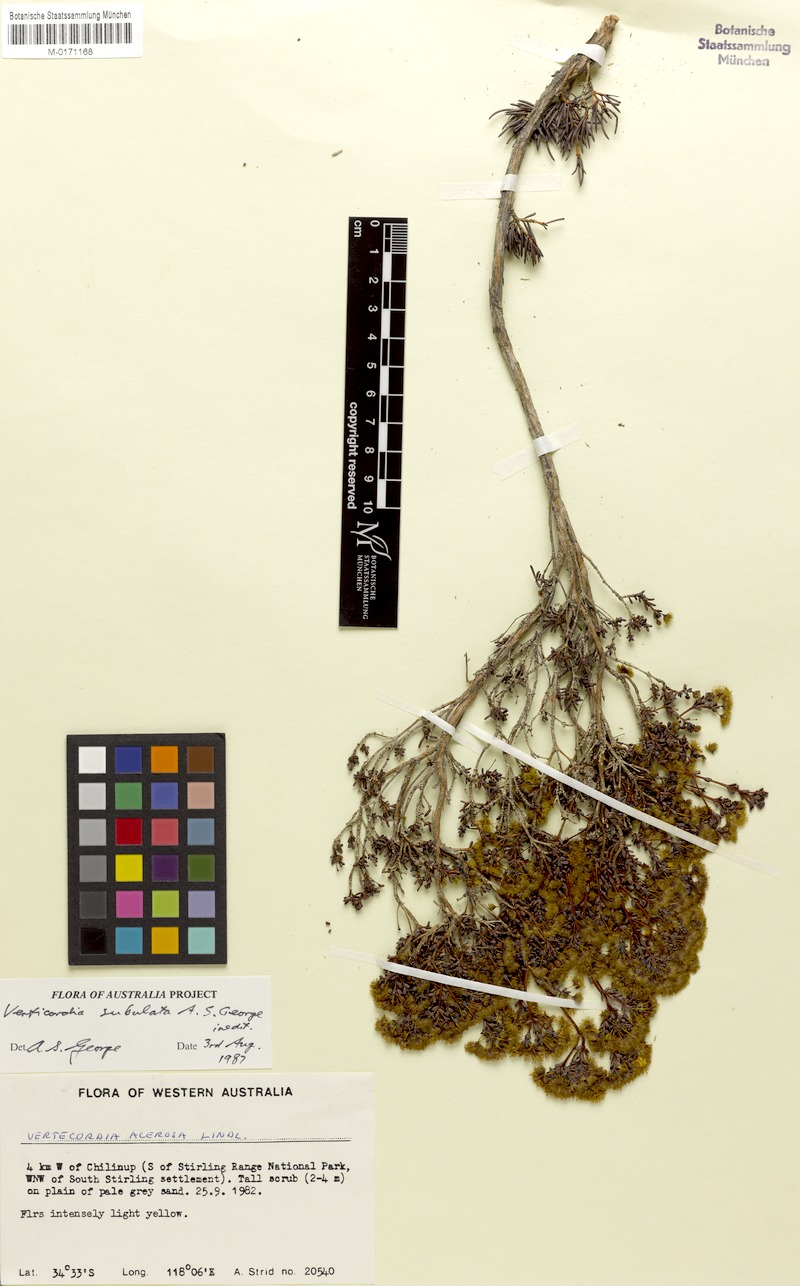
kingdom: Plantae
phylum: Tracheophyta
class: Magnoliopsida
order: Myrtales
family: Myrtaceae
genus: Verticordia
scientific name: Verticordia subulata
